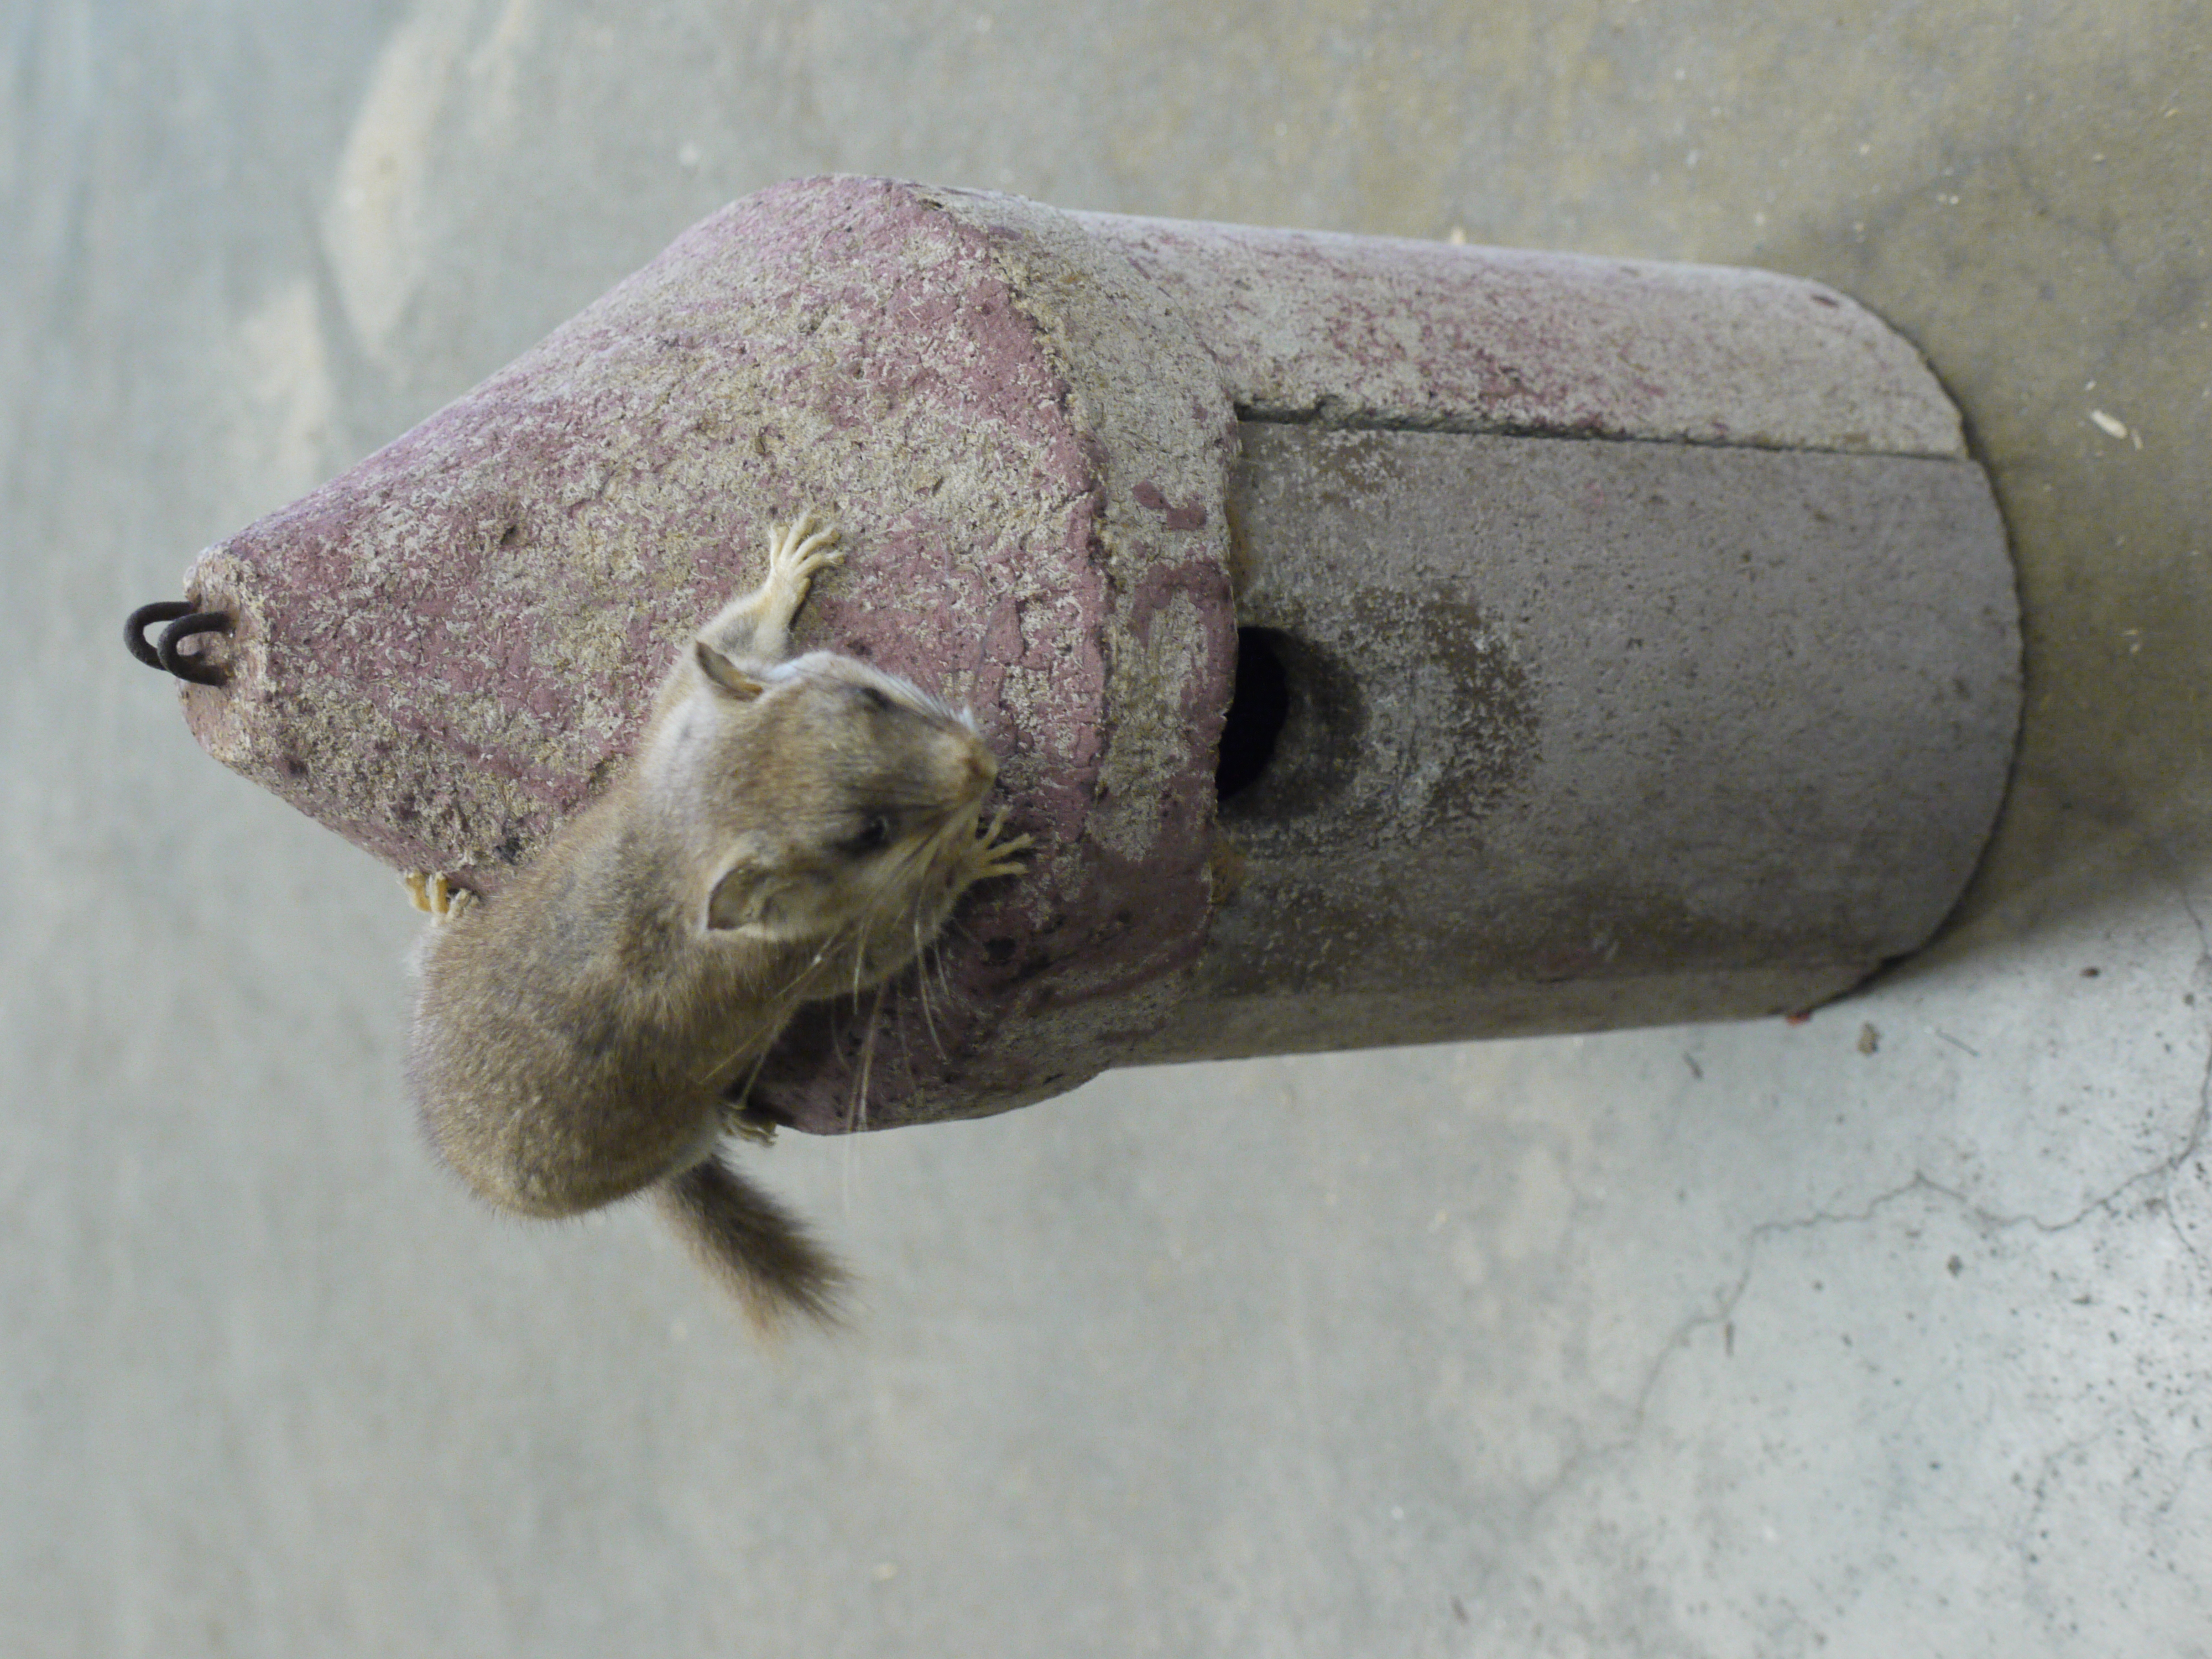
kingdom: Animalia
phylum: Chordata
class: Mammalia
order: Rodentia
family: Gliridae
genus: Glis
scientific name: Glis glis
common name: Fat dormouse
